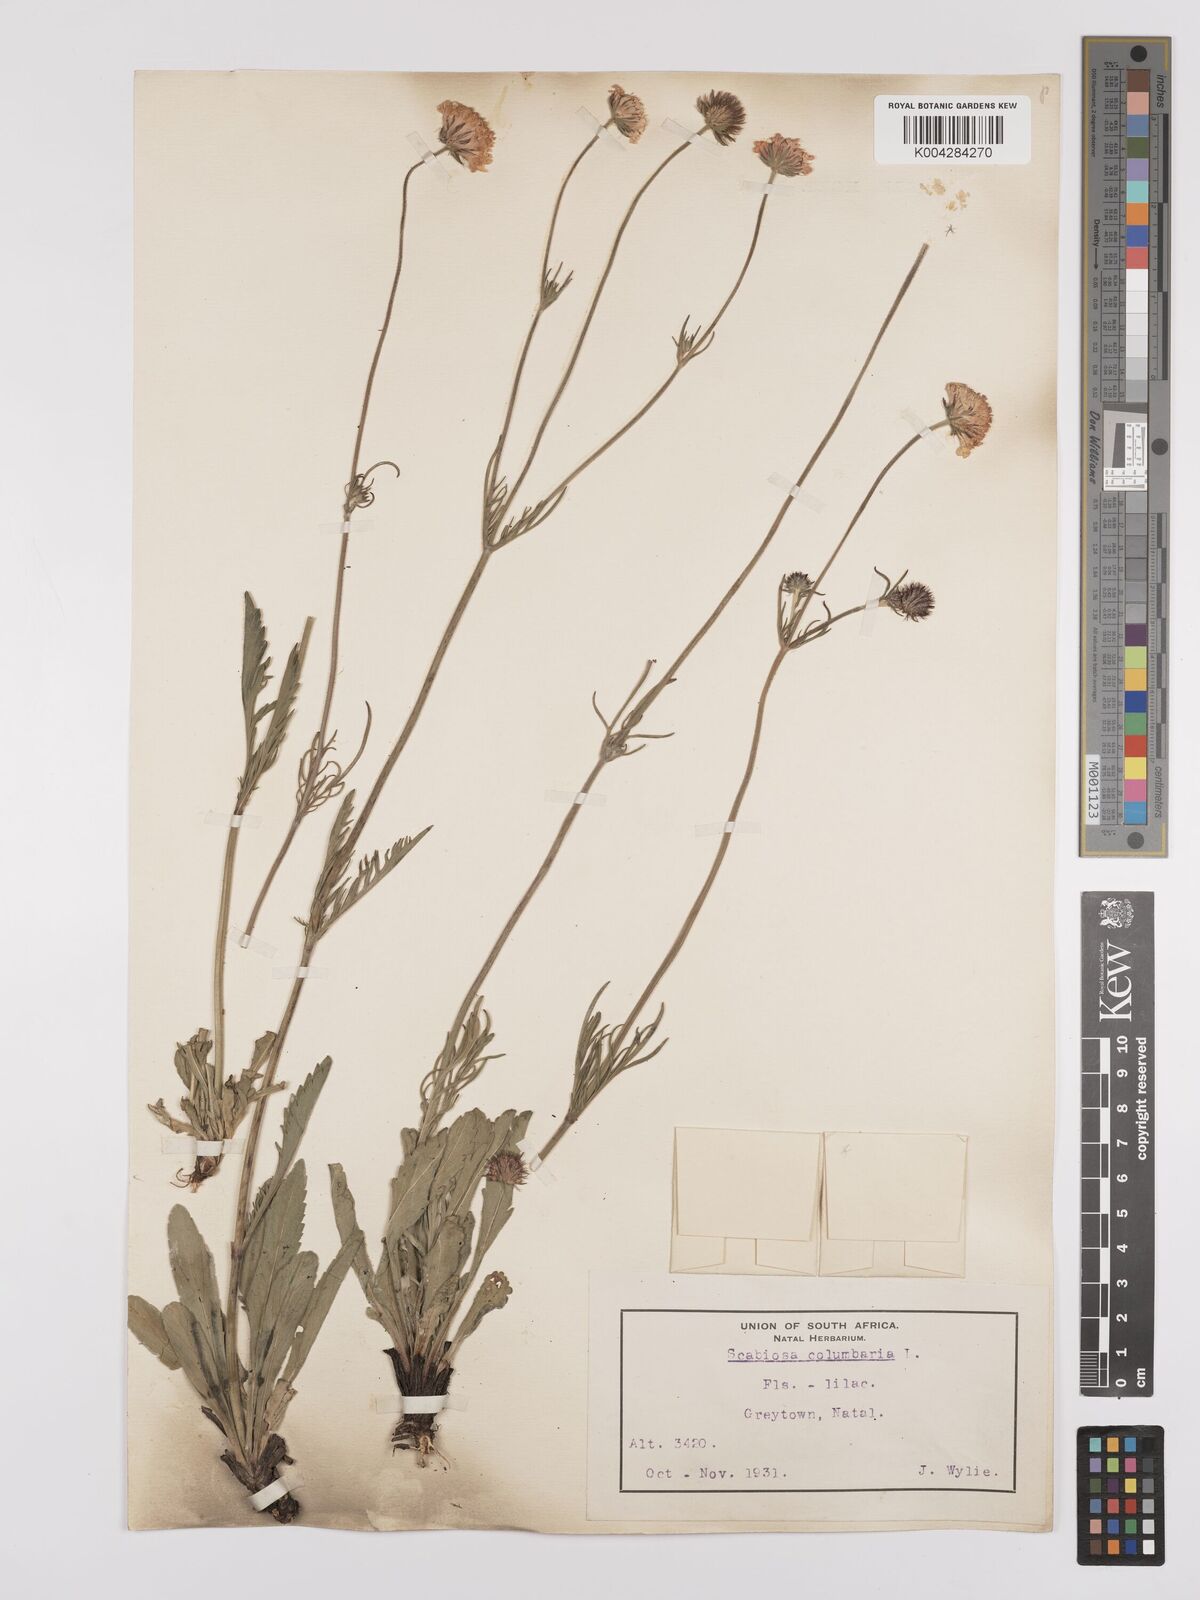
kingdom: Plantae
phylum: Tracheophyta
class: Magnoliopsida
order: Dipsacales
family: Caprifoliaceae
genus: Scabiosa
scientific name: Scabiosa columbaria
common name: Small scabious
